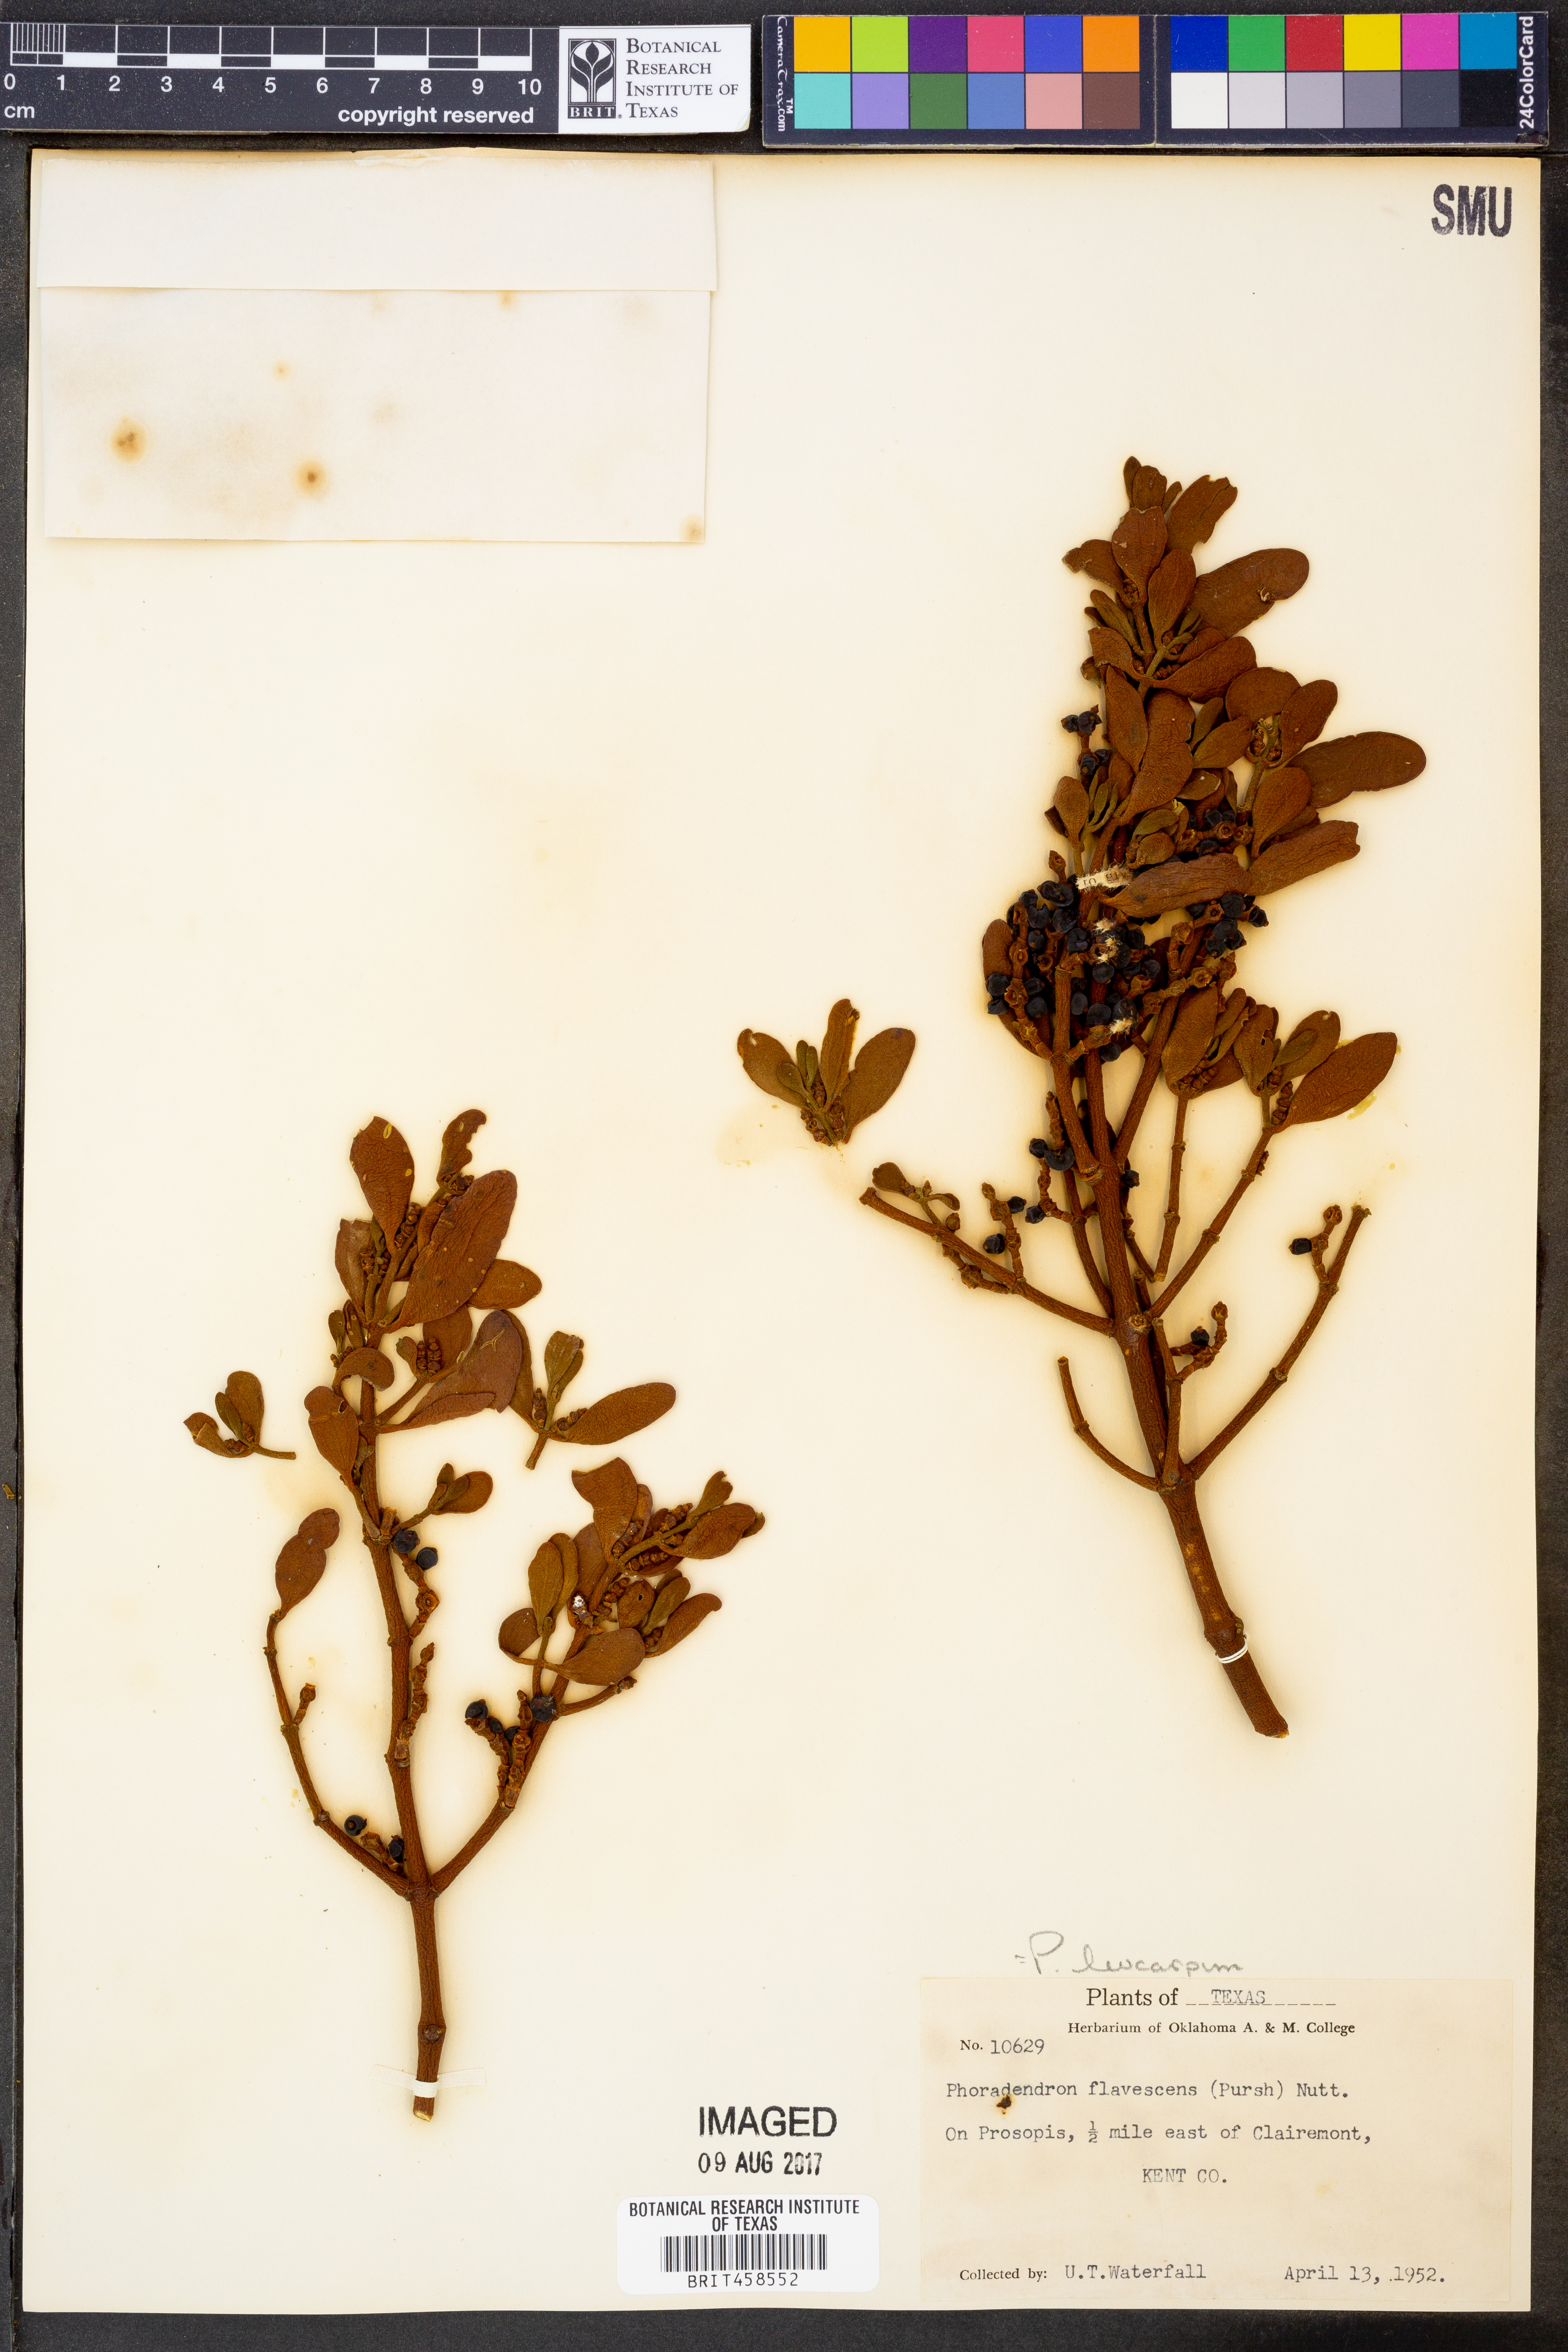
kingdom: Plantae
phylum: Tracheophyta
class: Magnoliopsida
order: Santalales
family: Viscaceae
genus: Phoradendron
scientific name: Phoradendron leucarpum
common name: Pacific mistletoe
